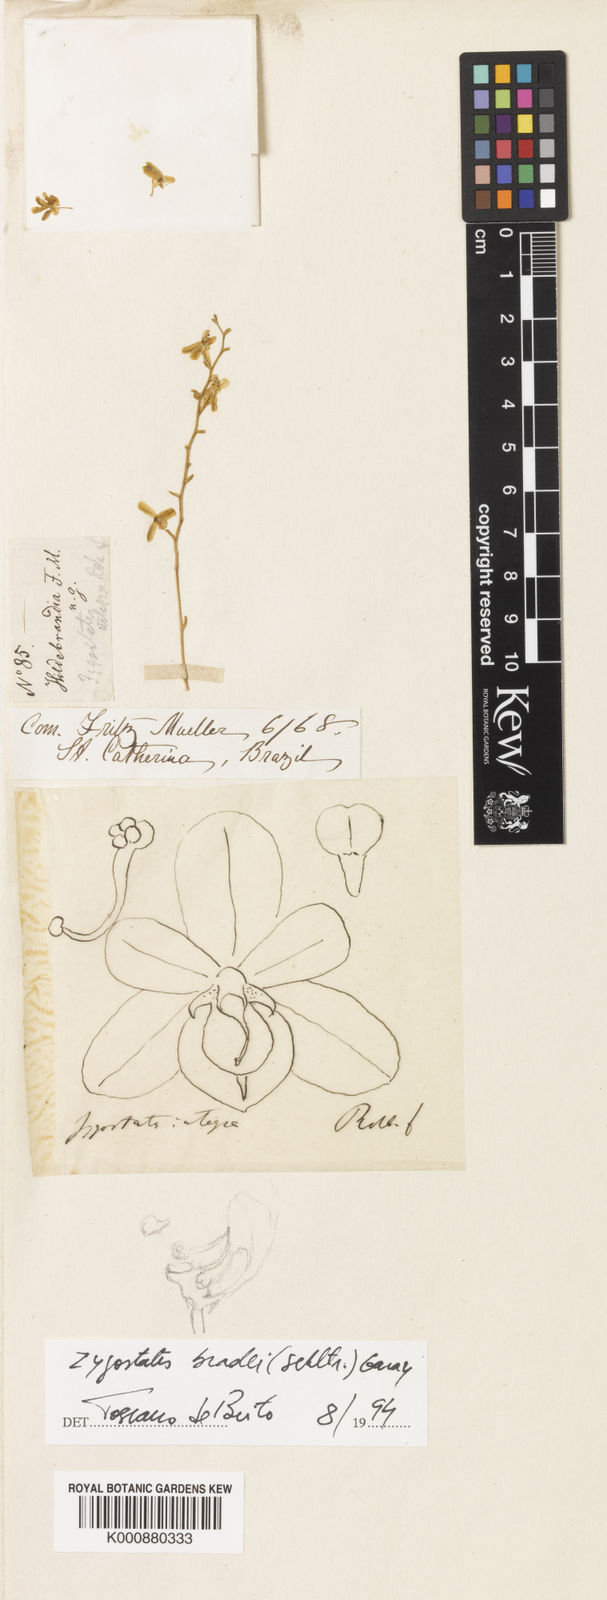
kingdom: Plantae
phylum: Tracheophyta
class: Liliopsida
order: Asparagales
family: Orchidaceae
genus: Zygostates
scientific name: Zygostates bradei
